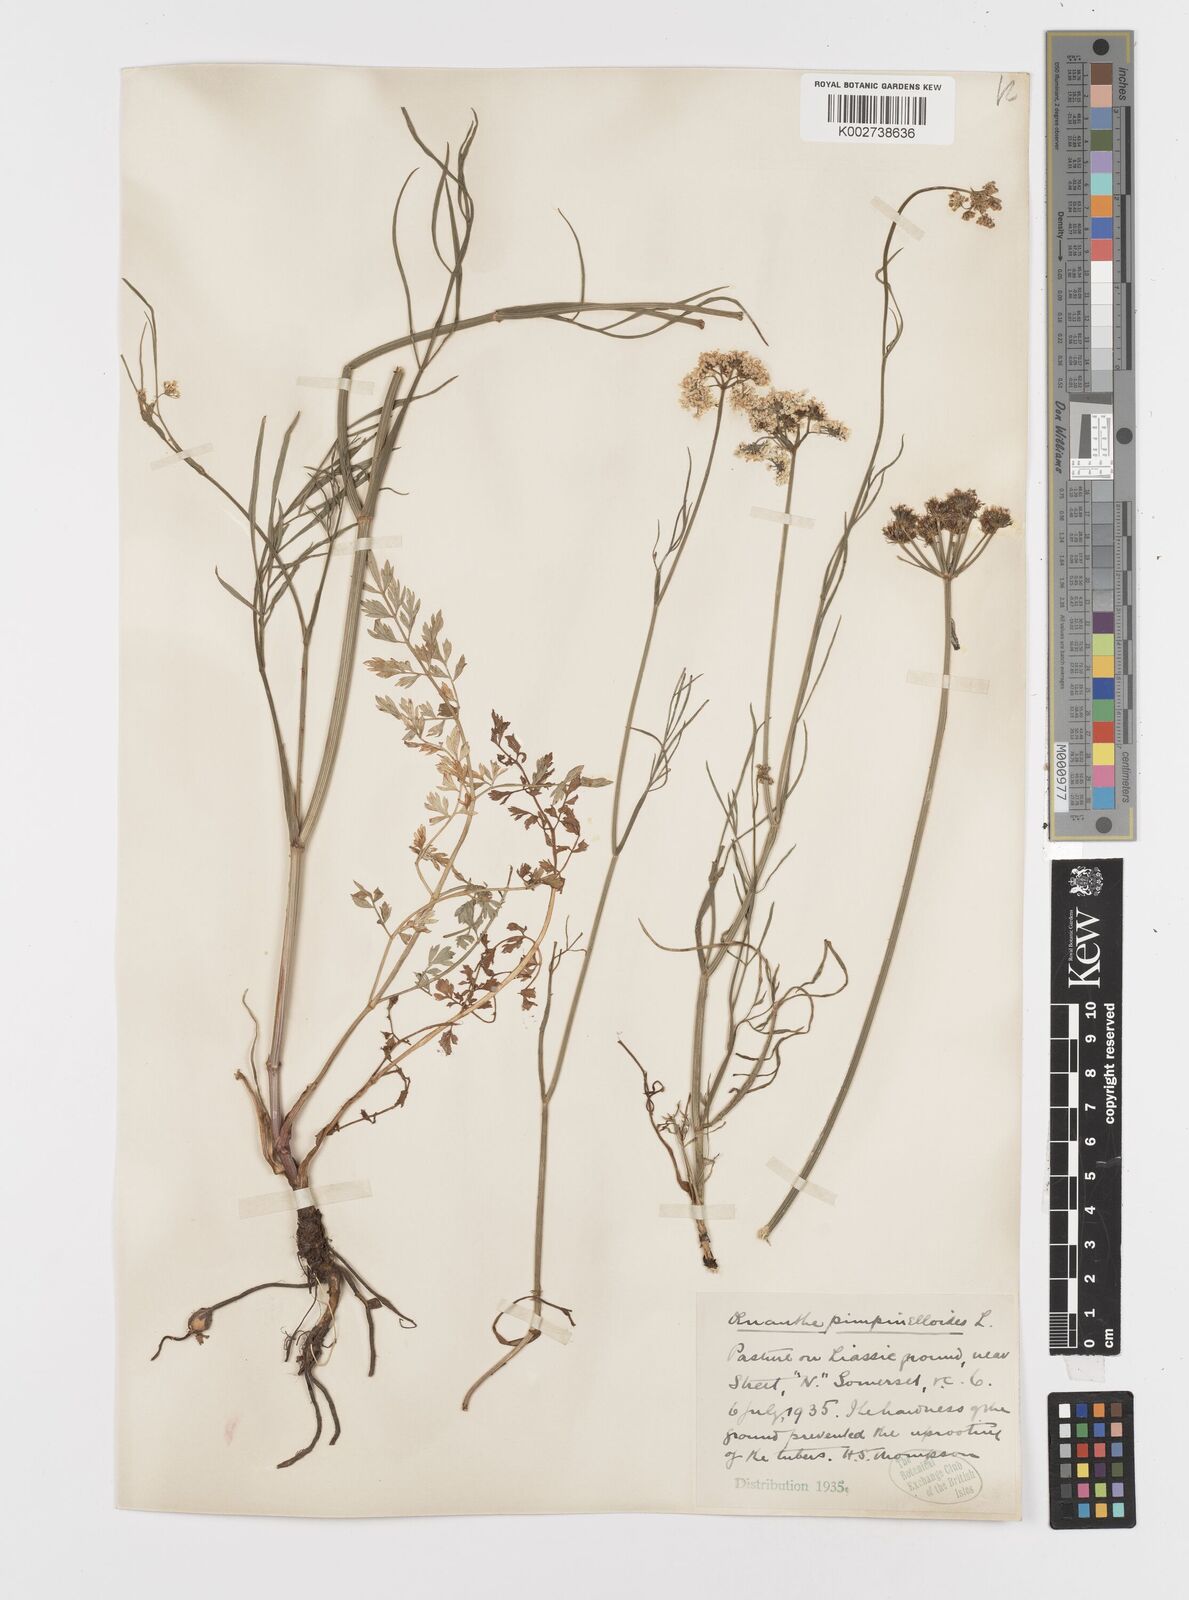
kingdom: Plantae
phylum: Tracheophyta
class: Magnoliopsida
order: Apiales
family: Apiaceae
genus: Oenanthe
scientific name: Oenanthe pimpinelloides
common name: Corky-fruited water-dropwort
